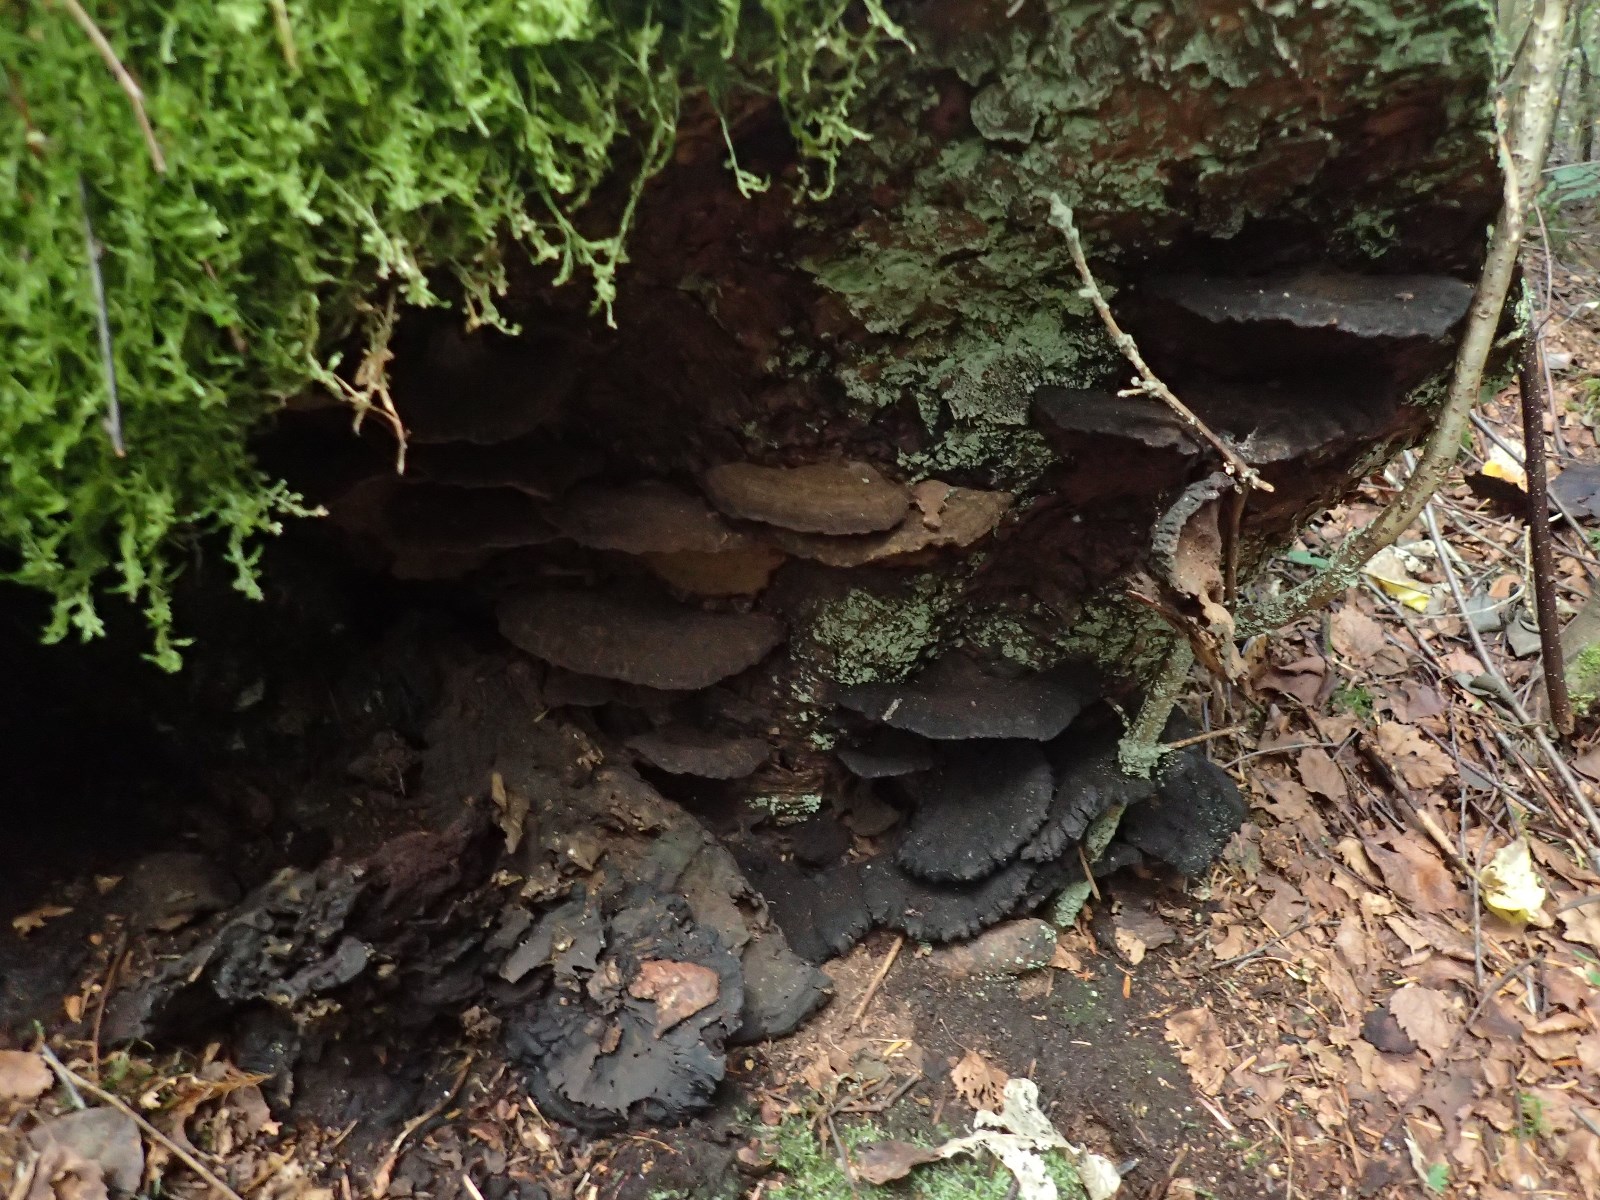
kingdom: Fungi
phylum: Basidiomycota
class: Agaricomycetes
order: Polyporales
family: Ischnodermataceae
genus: Ischnoderma
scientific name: Ischnoderma benzoinum
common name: gran-tjæreporesvamp
